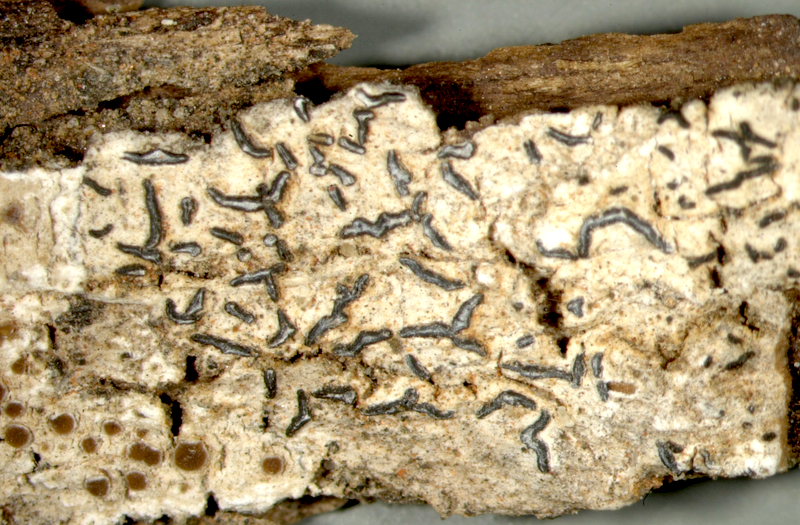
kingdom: Fungi
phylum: Ascomycota
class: Arthoniomycetes
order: Arthoniales
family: Roccellaceae
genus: Schismatomma
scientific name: Schismatomma
